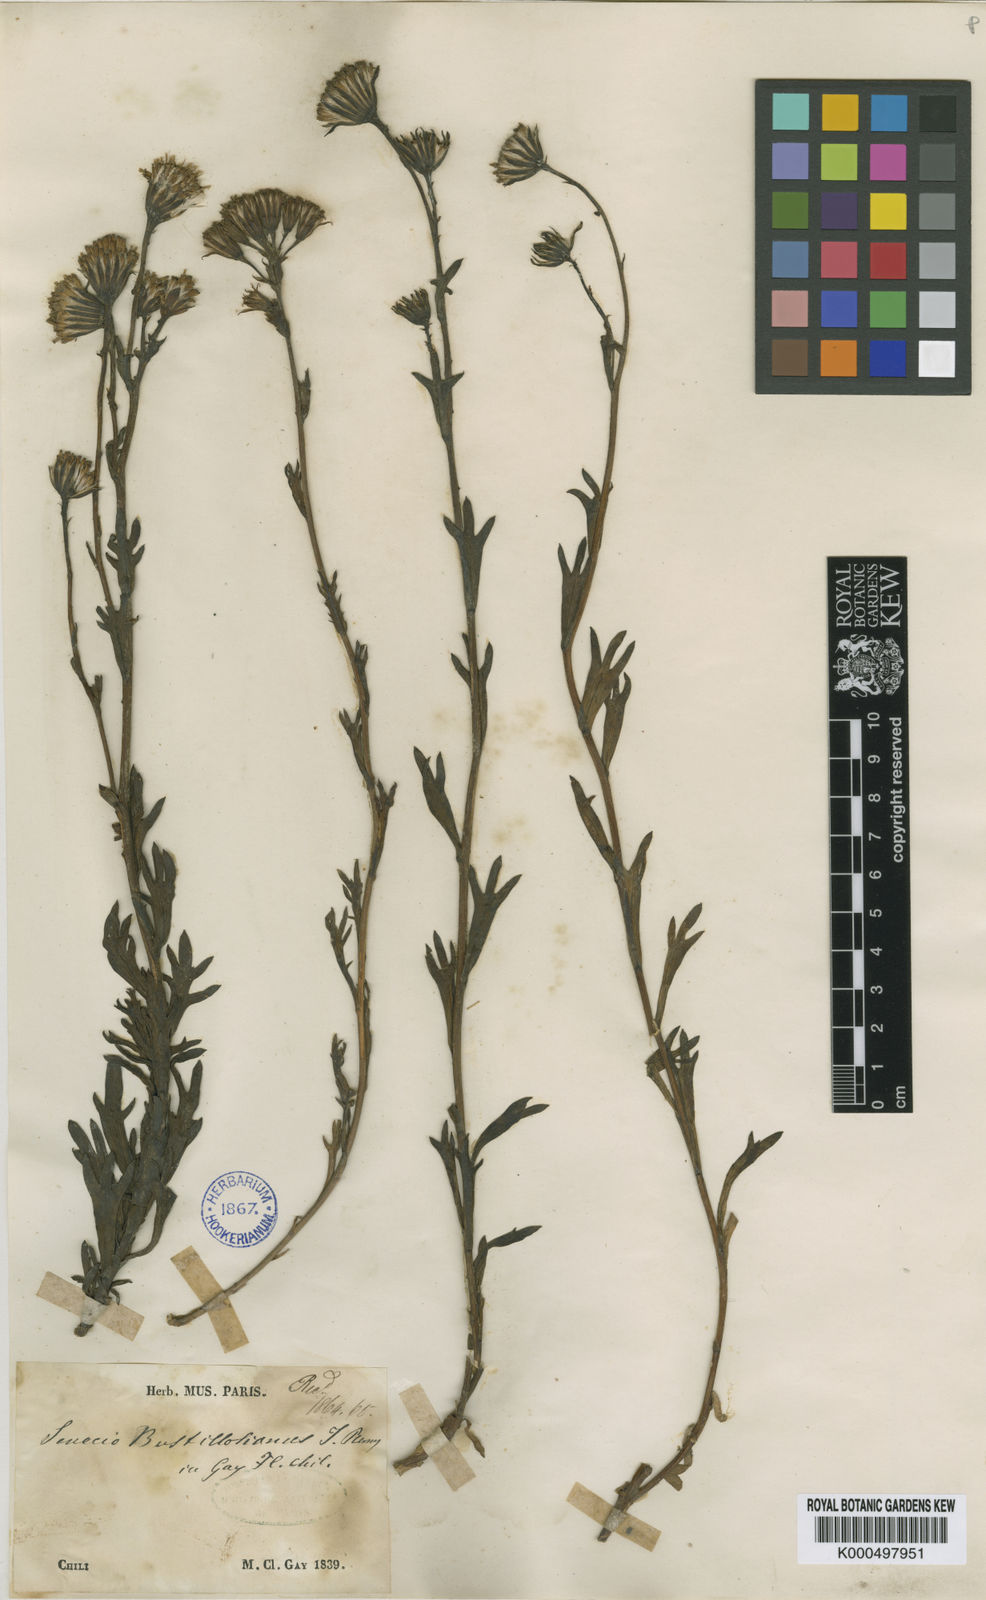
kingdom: Plantae
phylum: Tracheophyta
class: Magnoliopsida
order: Asterales
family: Asteraceae
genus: Senecio
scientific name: Senecio bustillosianus
